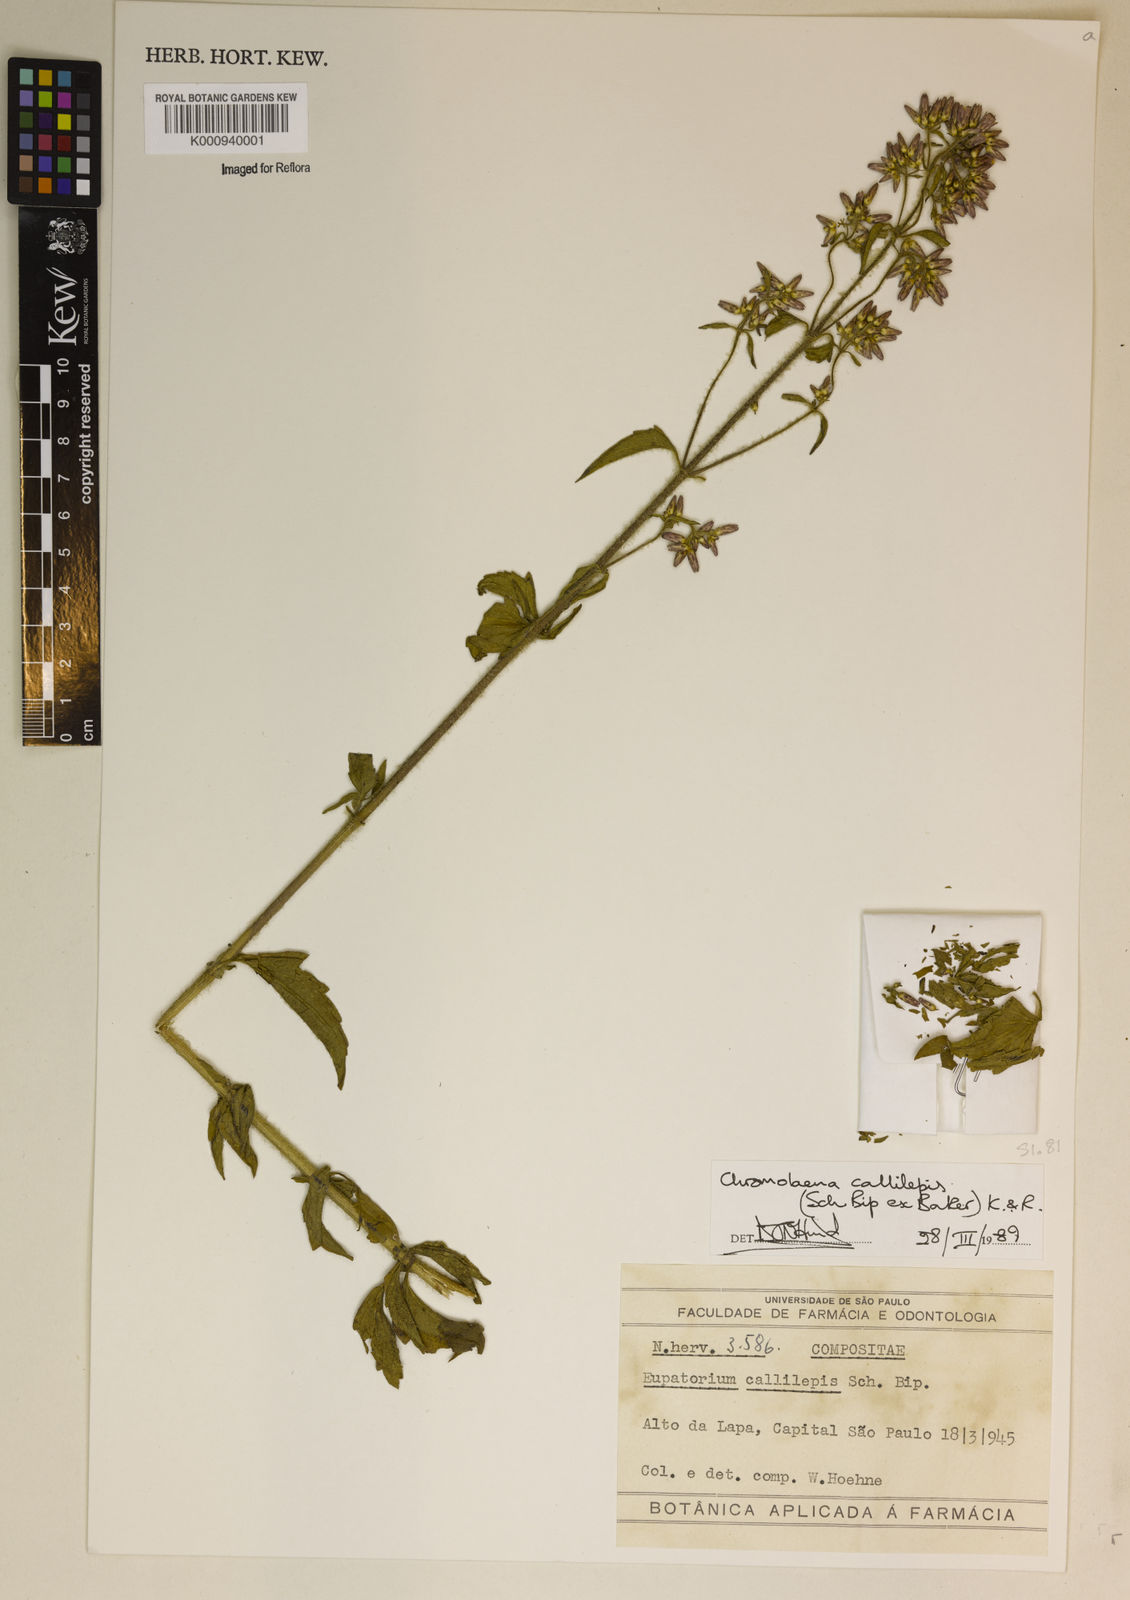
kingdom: Plantae
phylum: Tracheophyta
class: Magnoliopsida
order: Asterales
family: Asteraceae
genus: Chromolaena
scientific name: Chromolaena callilepis
